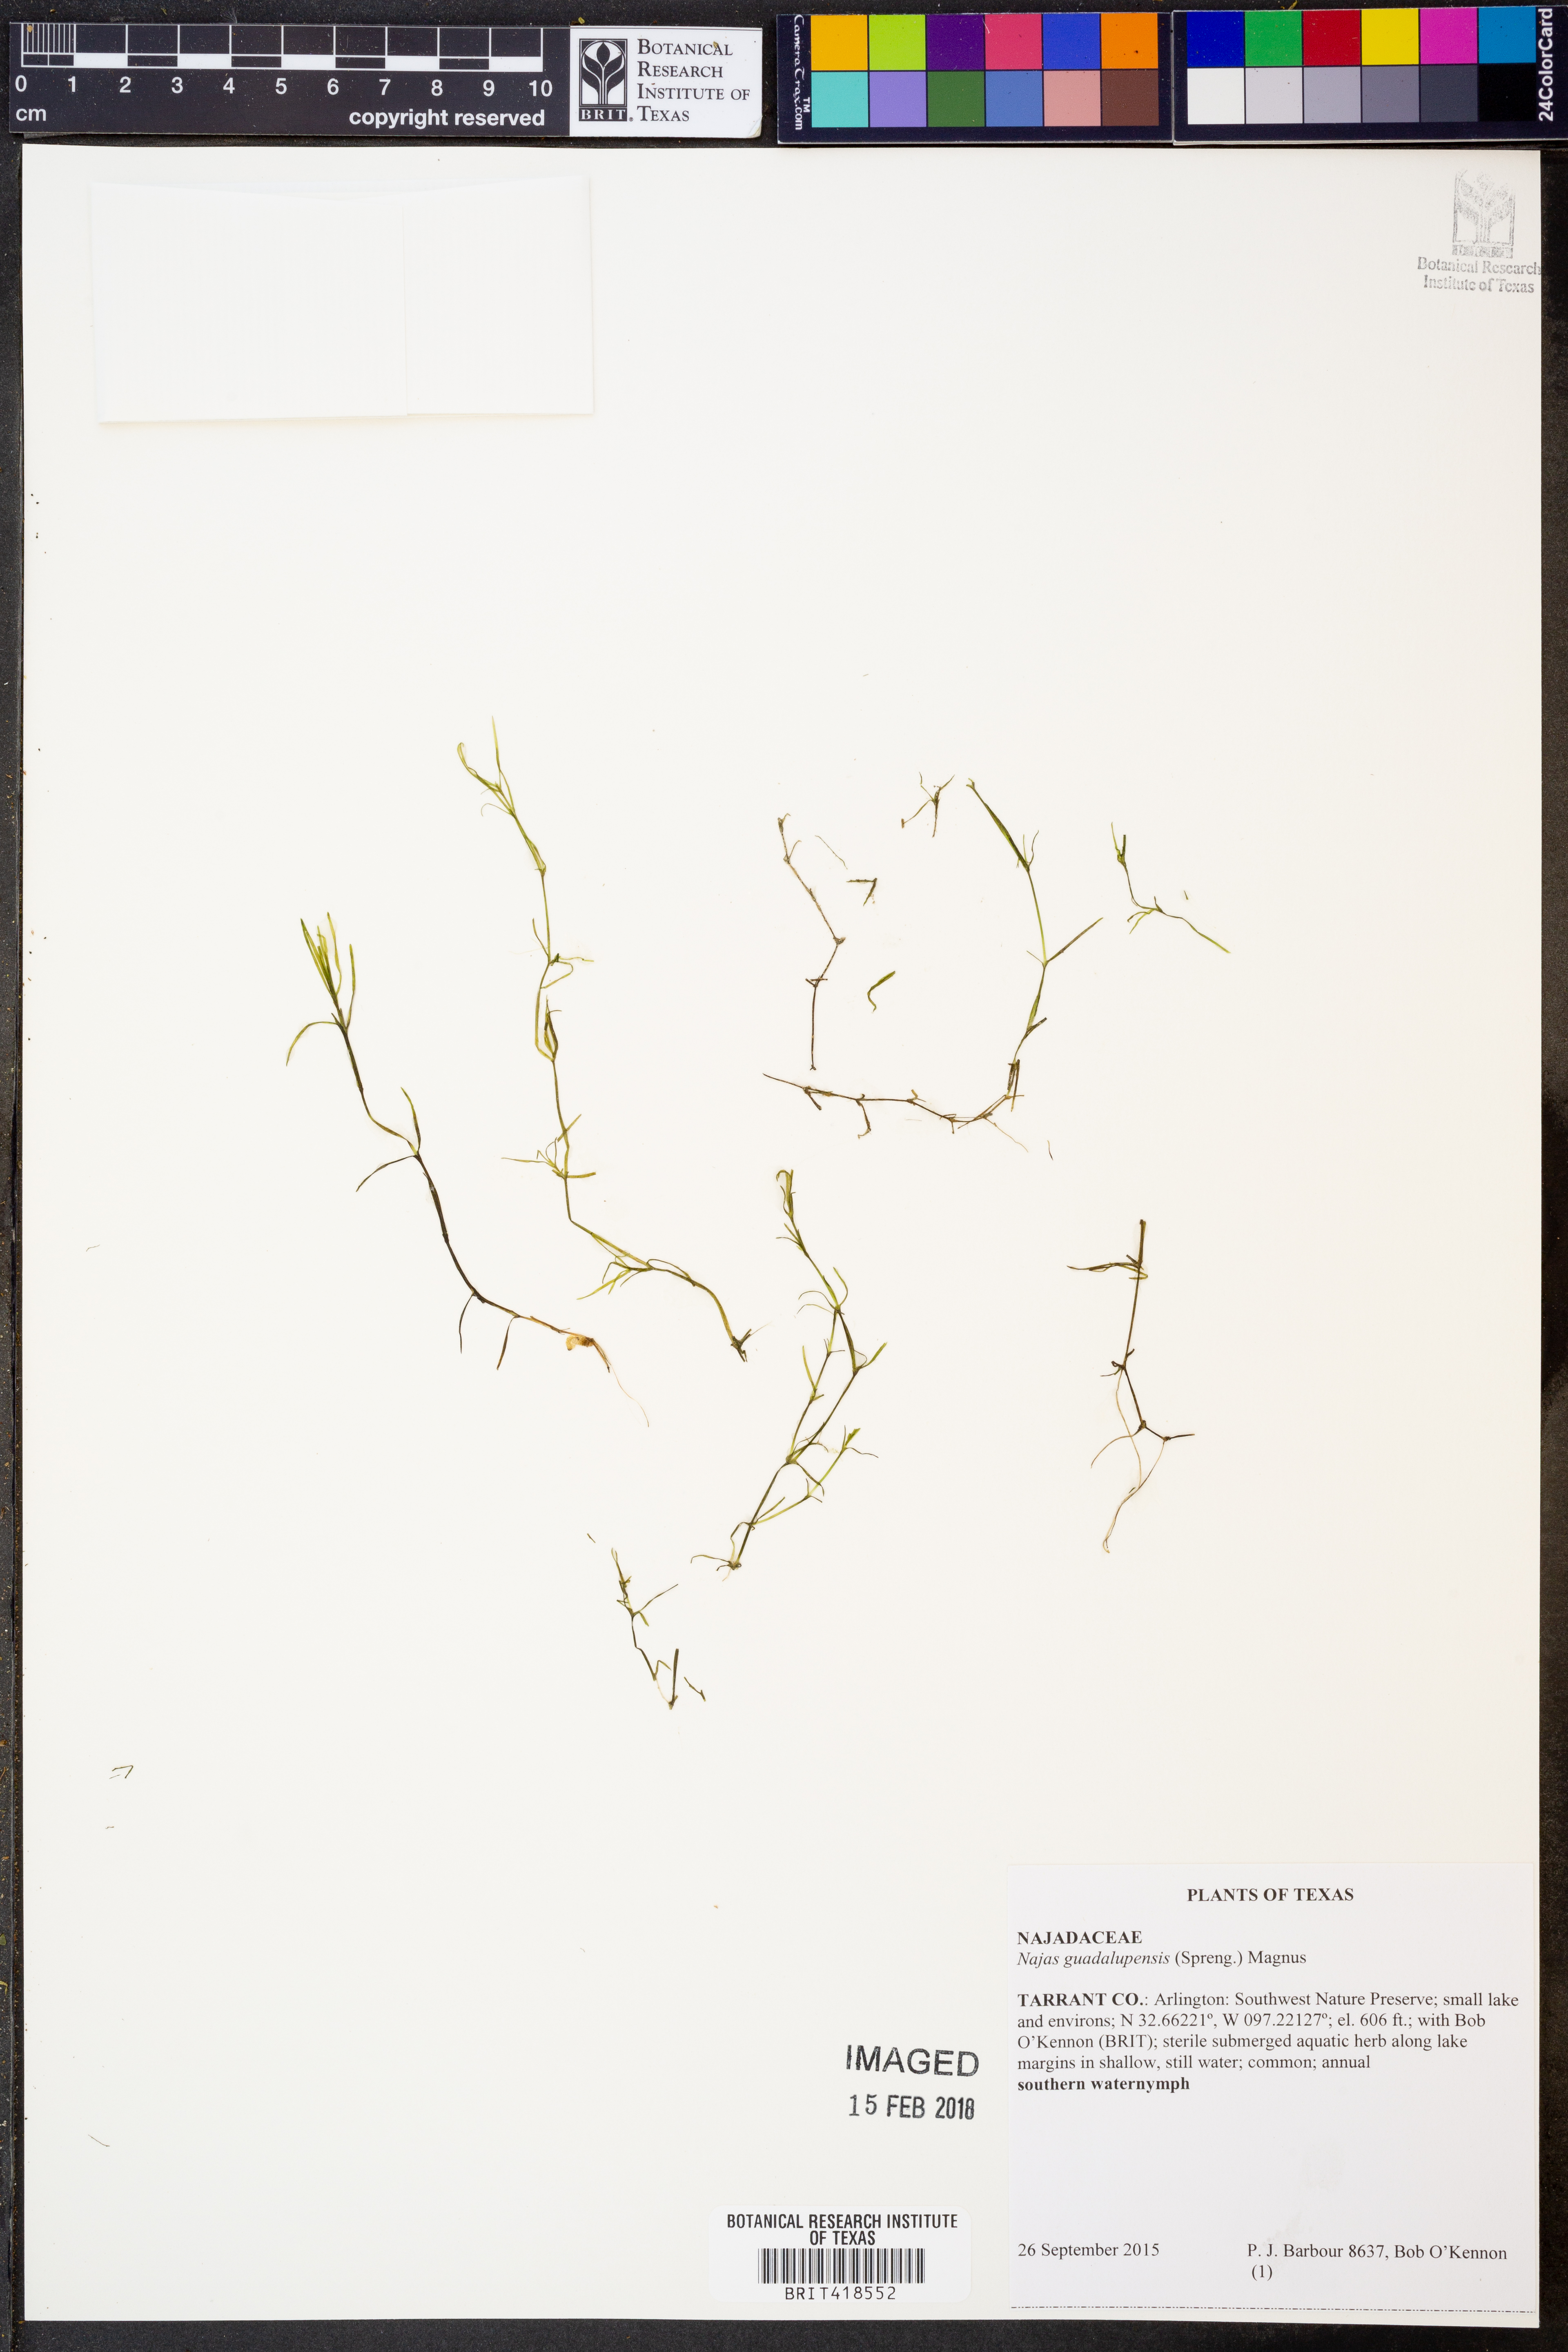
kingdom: Plantae
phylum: Tracheophyta
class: Liliopsida
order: Alismatales
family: Hydrocharitaceae
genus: Najas
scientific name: Najas guadalupensis
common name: Southern naiad
